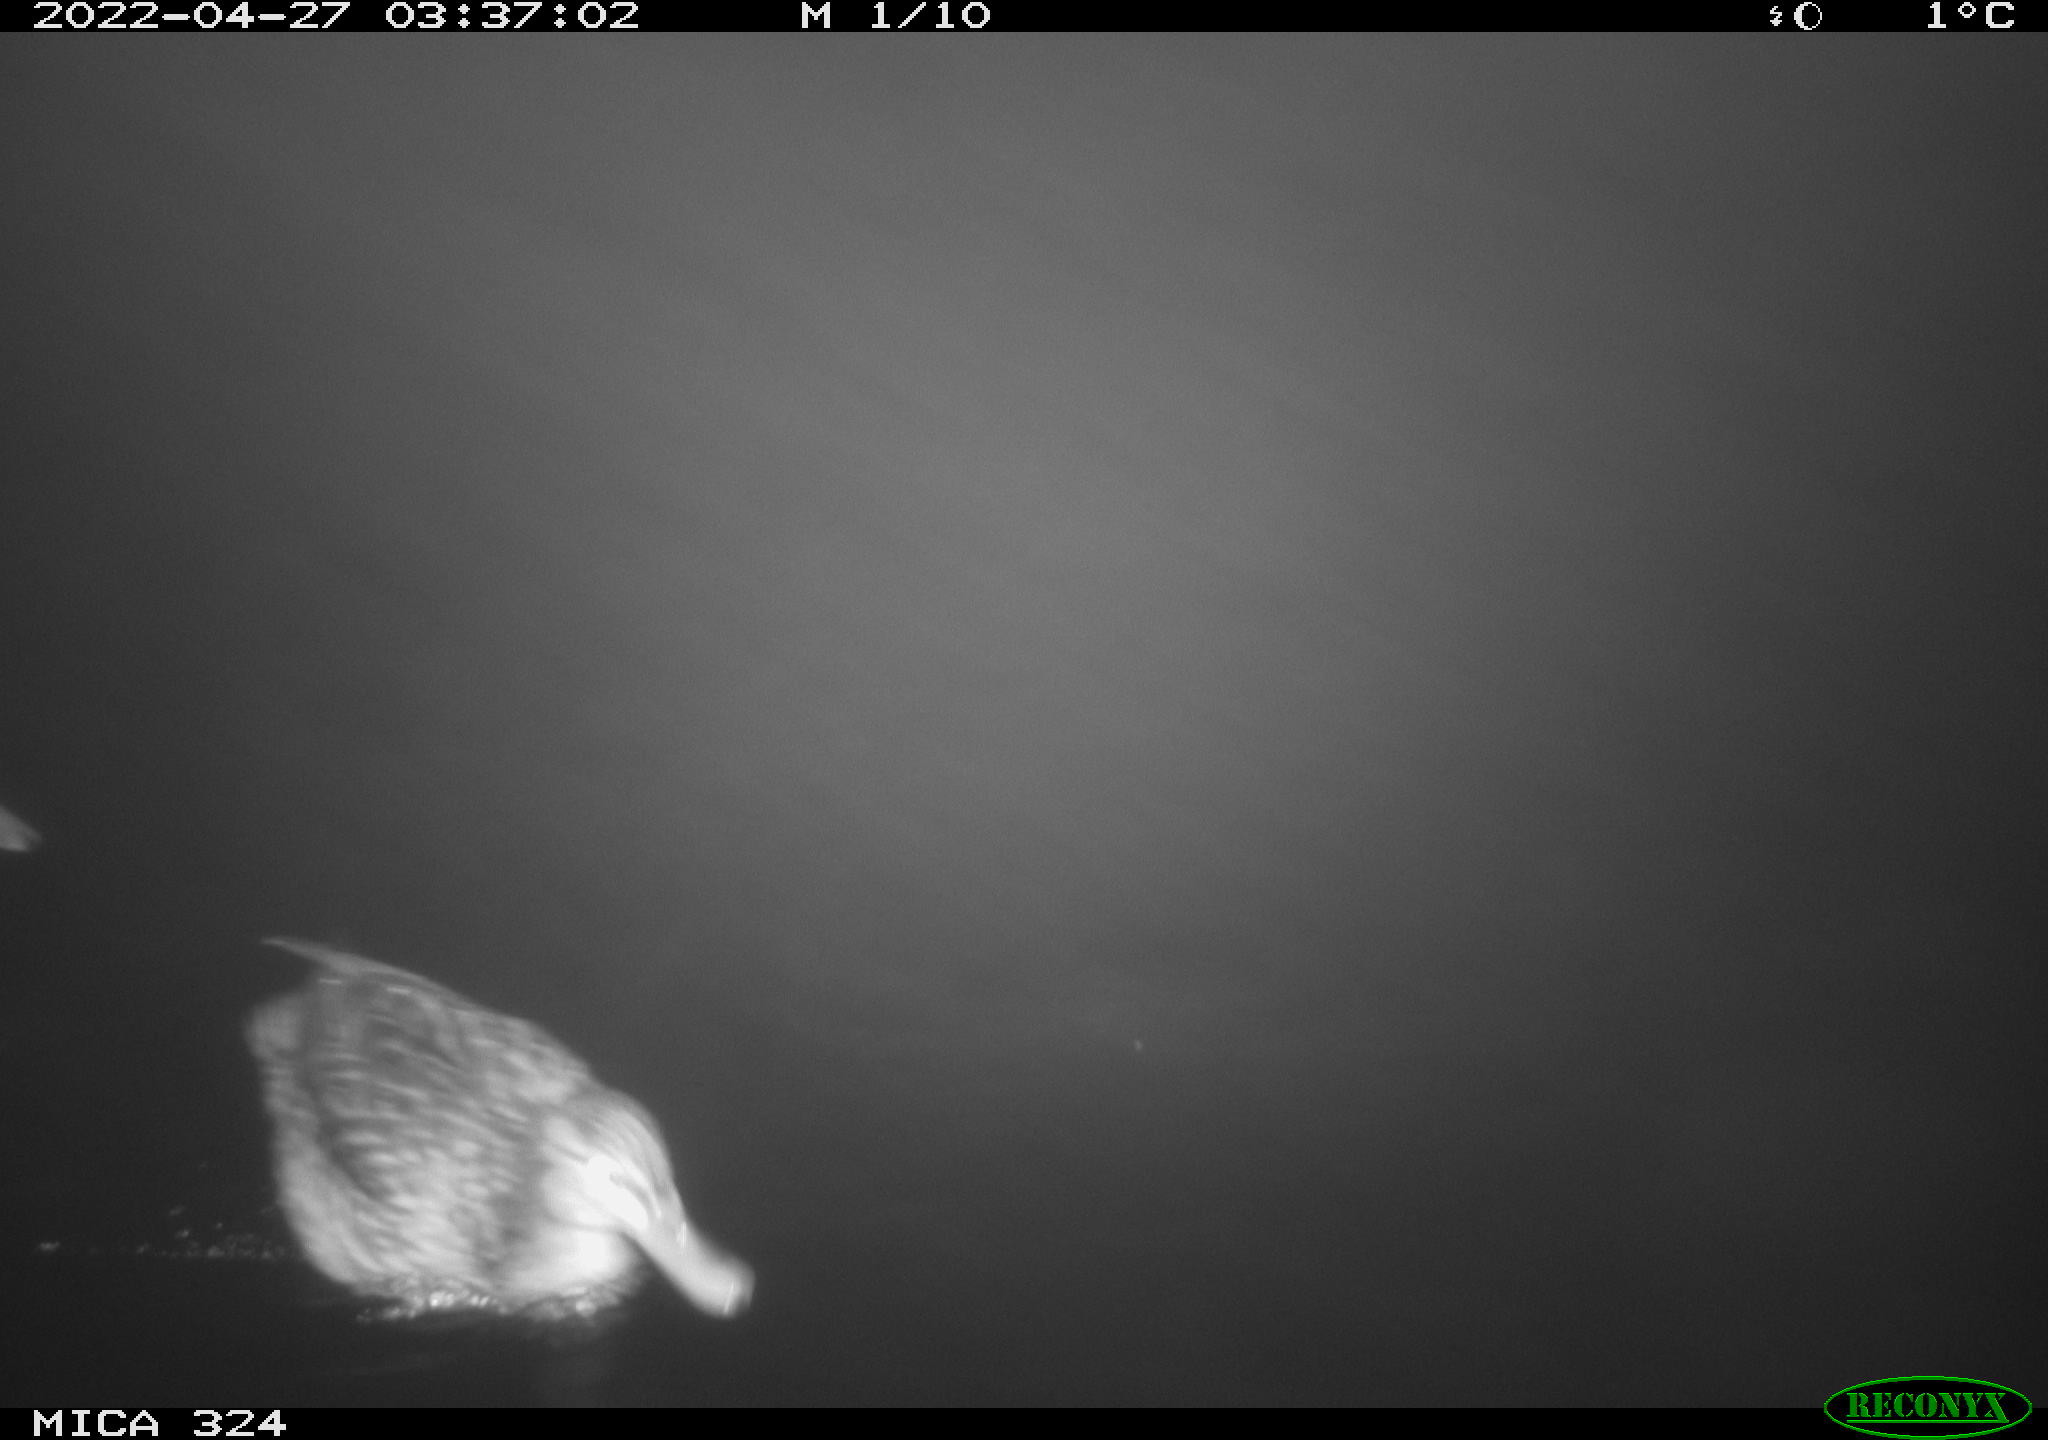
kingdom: Animalia
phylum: Chordata
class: Aves
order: Anseriformes
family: Anatidae
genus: Anas
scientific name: Anas platyrhynchos
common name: Mallard
